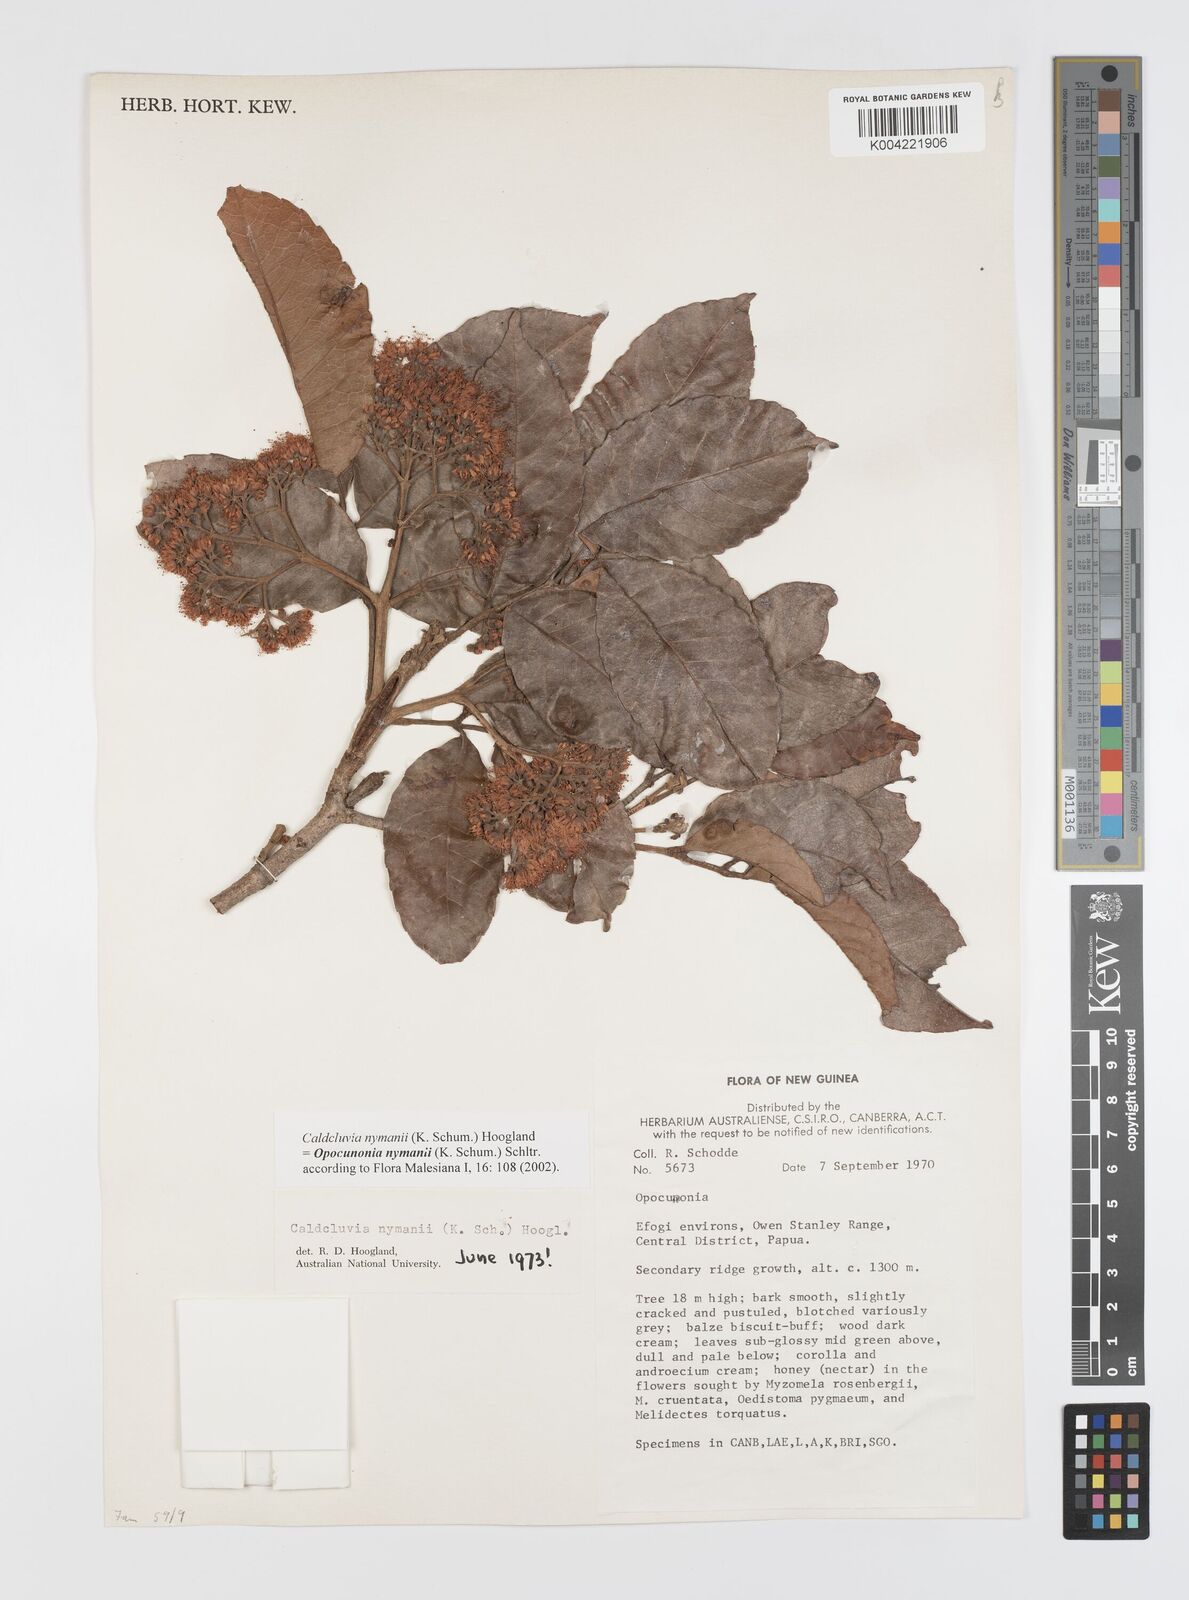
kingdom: Plantae
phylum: Tracheophyta
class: Magnoliopsida
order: Oxalidales
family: Cunoniaceae
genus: Opocunonia
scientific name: Opocunonia nymanii
